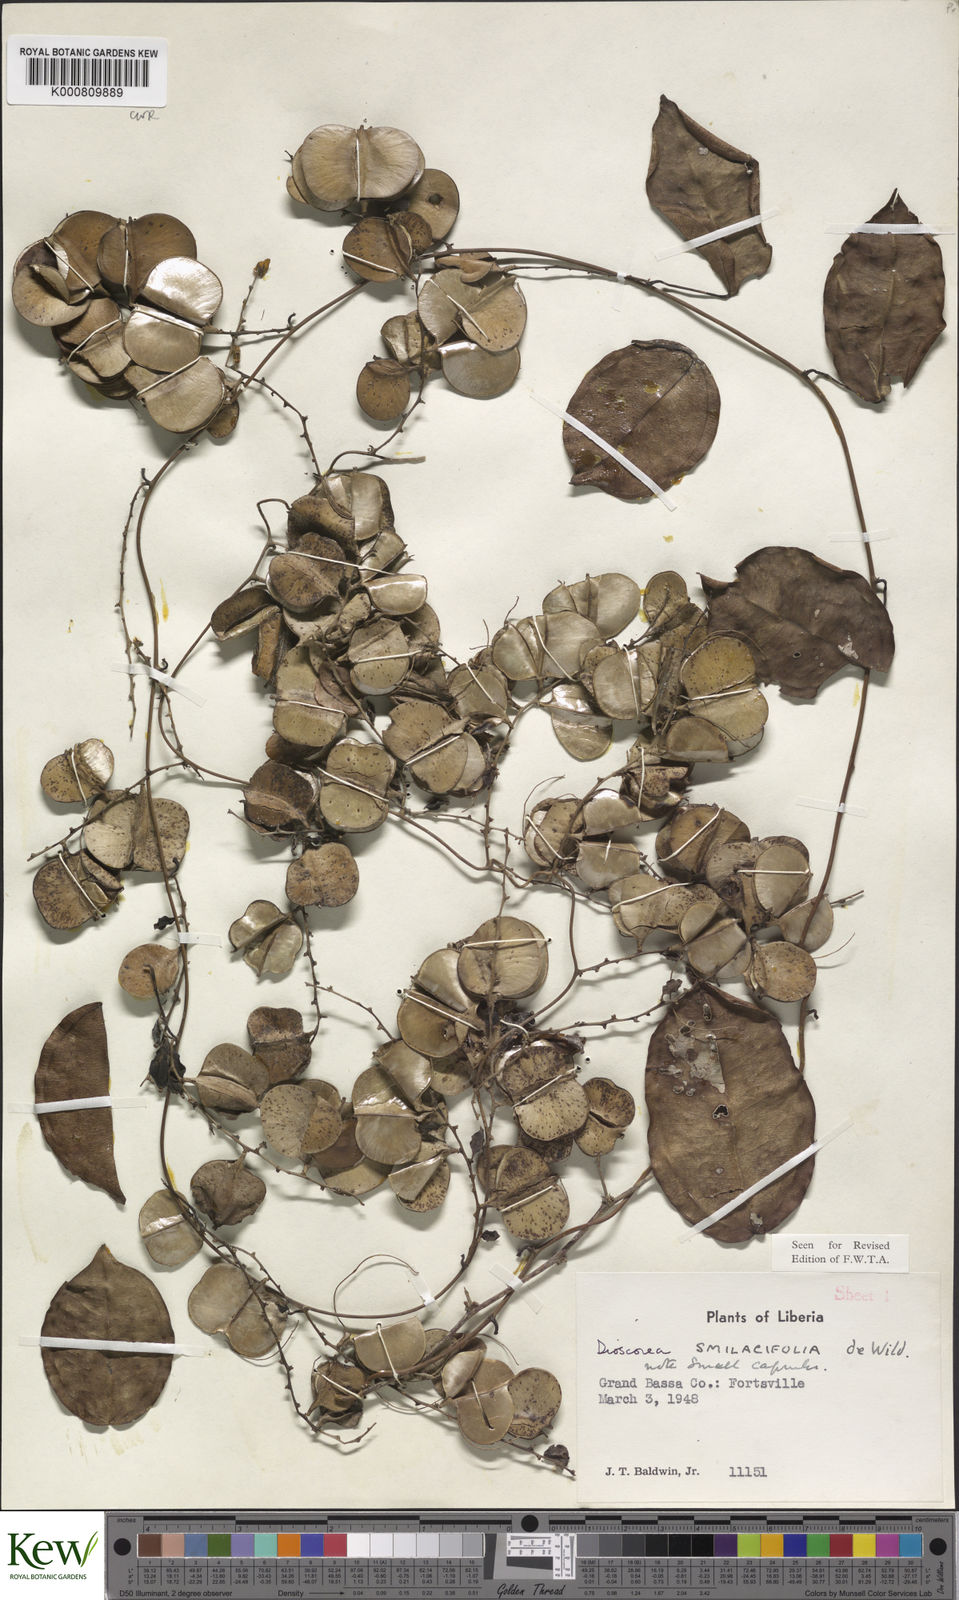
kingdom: Plantae
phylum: Tracheophyta
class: Liliopsida
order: Dioscoreales
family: Dioscoreaceae
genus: Dioscorea
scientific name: Dioscorea smilacifolia
